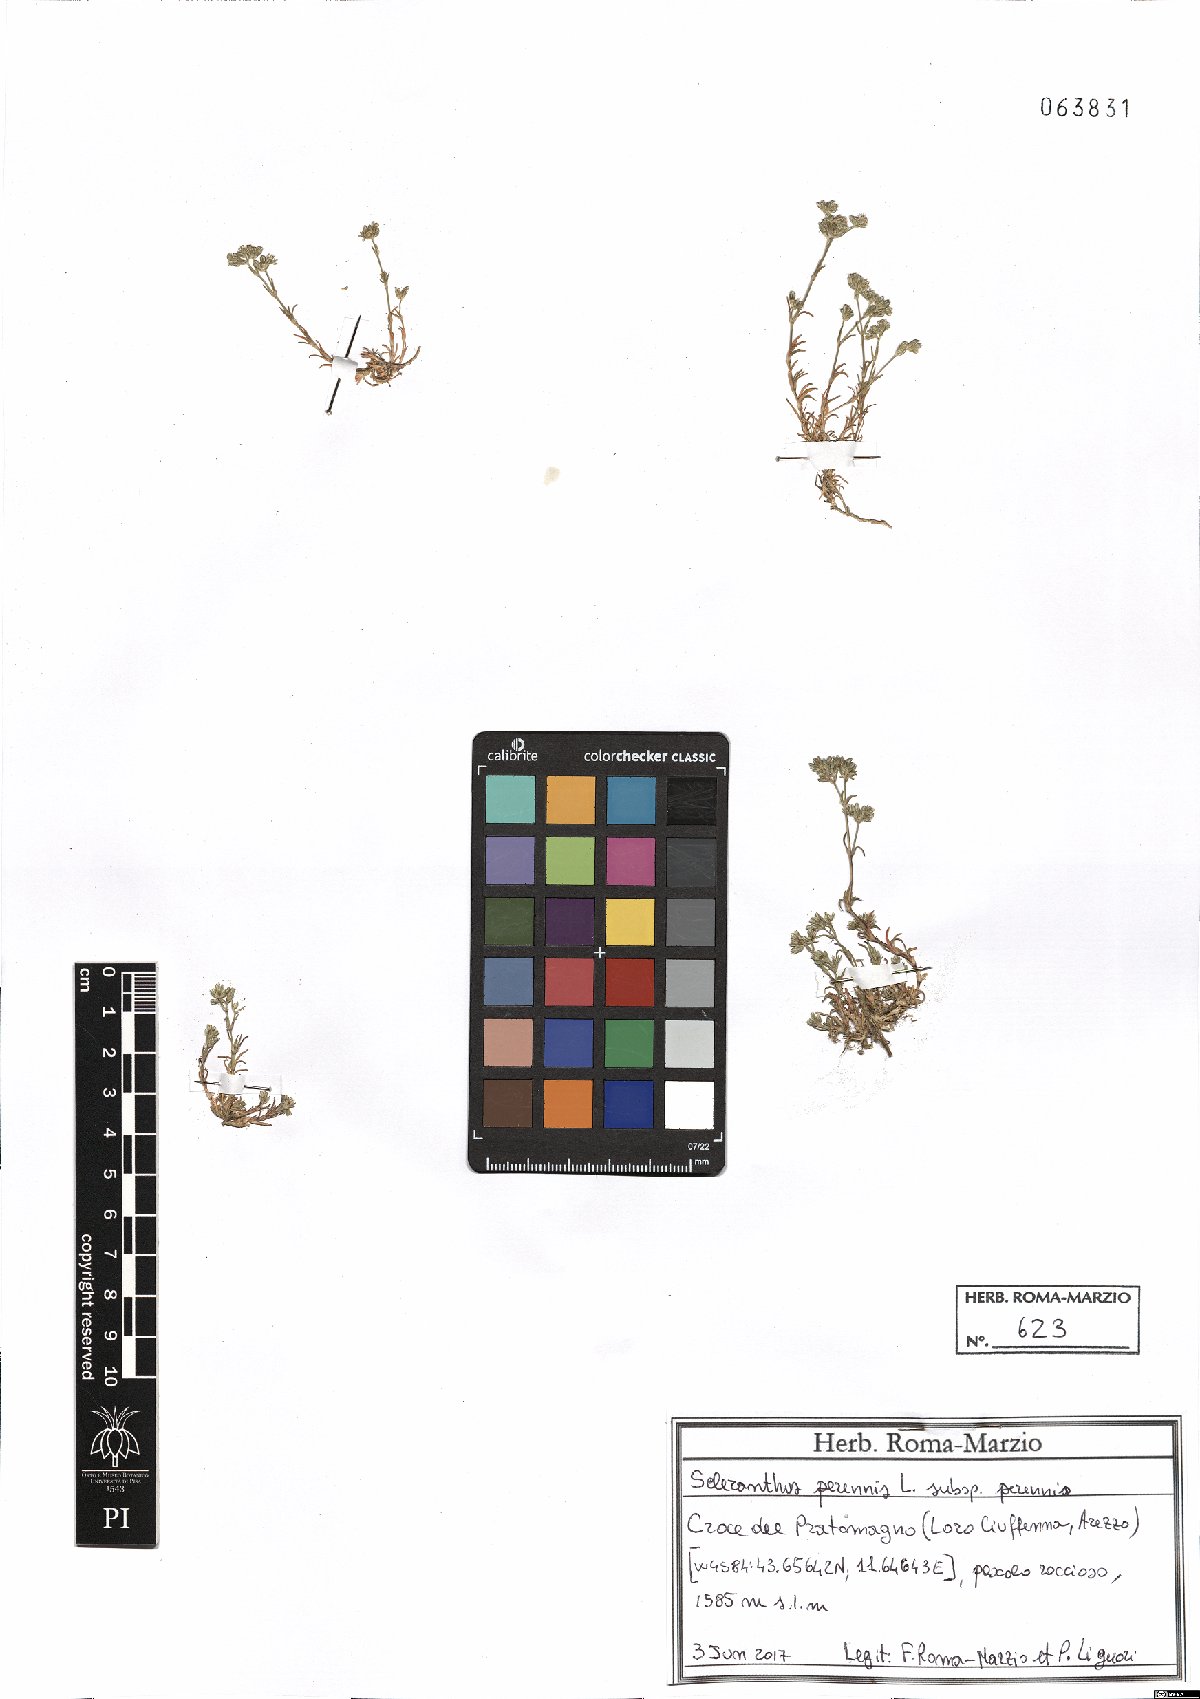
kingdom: Plantae
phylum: Tracheophyta
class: Magnoliopsida
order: Caryophyllales
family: Caryophyllaceae
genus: Scleranthus
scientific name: Scleranthus perennis
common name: Perennial knawel
